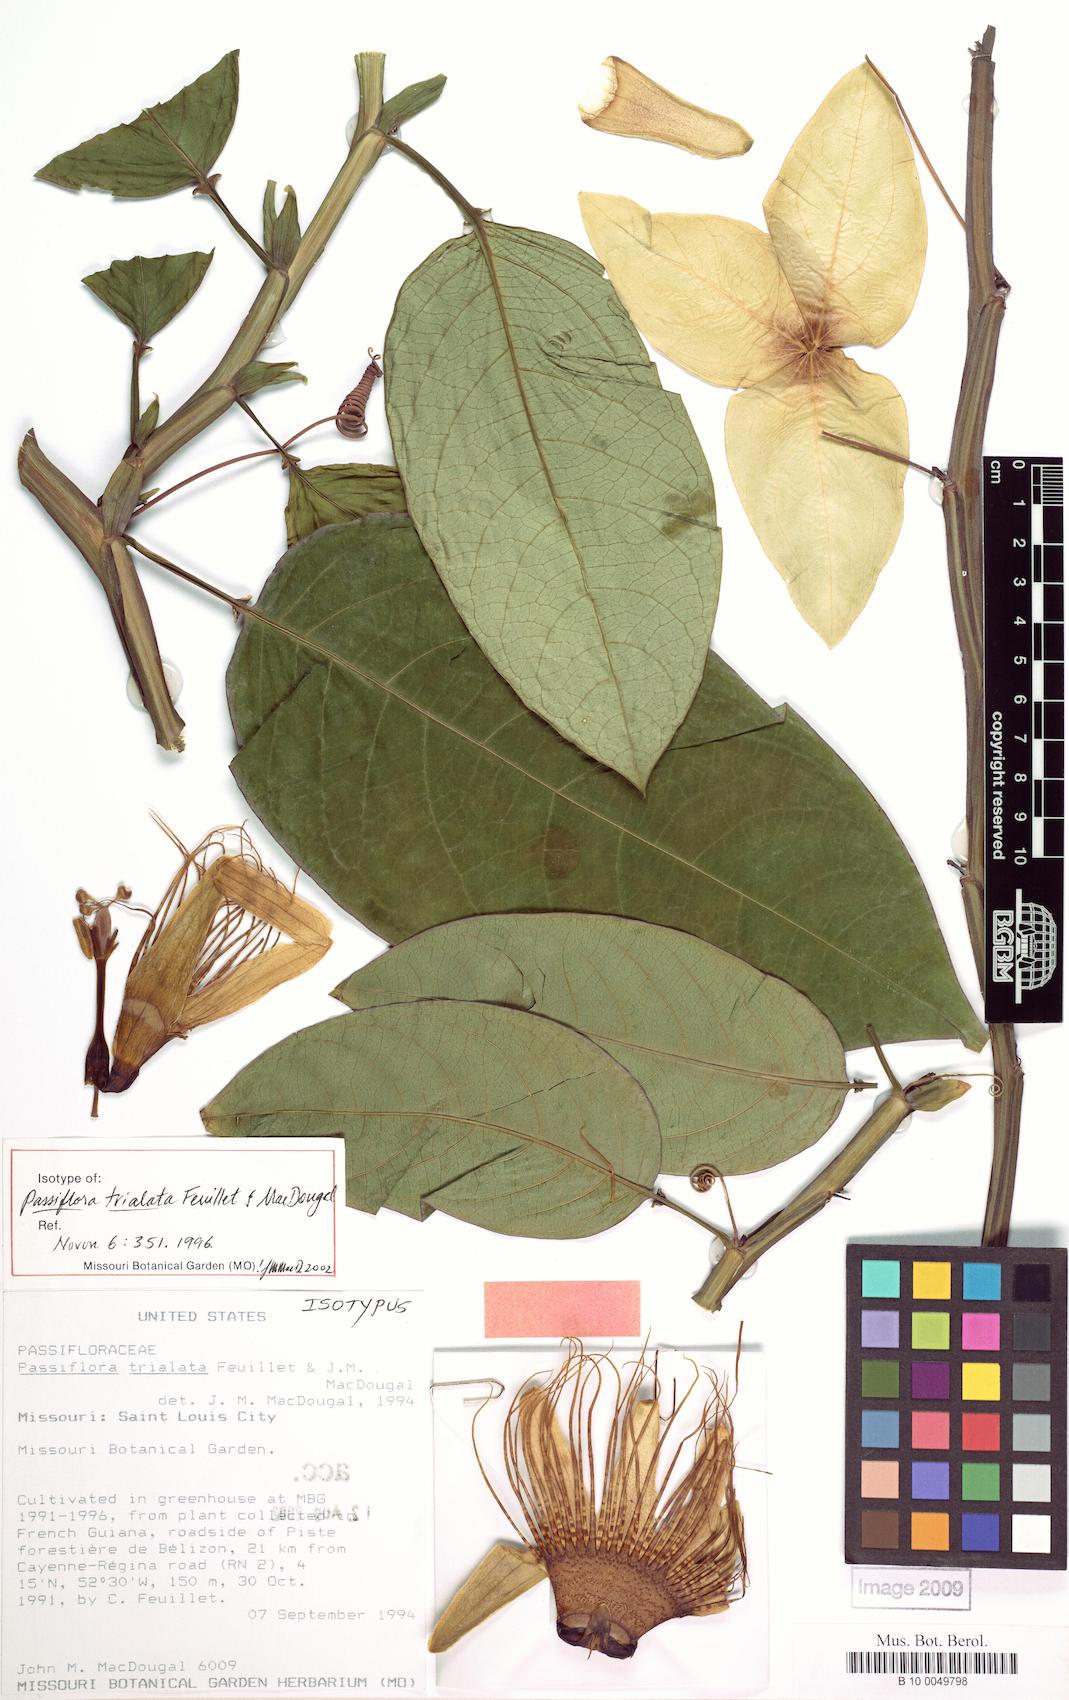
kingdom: Plantae
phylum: Tracheophyta
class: Magnoliopsida
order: Malpighiales
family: Passifloraceae
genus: Passiflora
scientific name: Passiflora trialata
